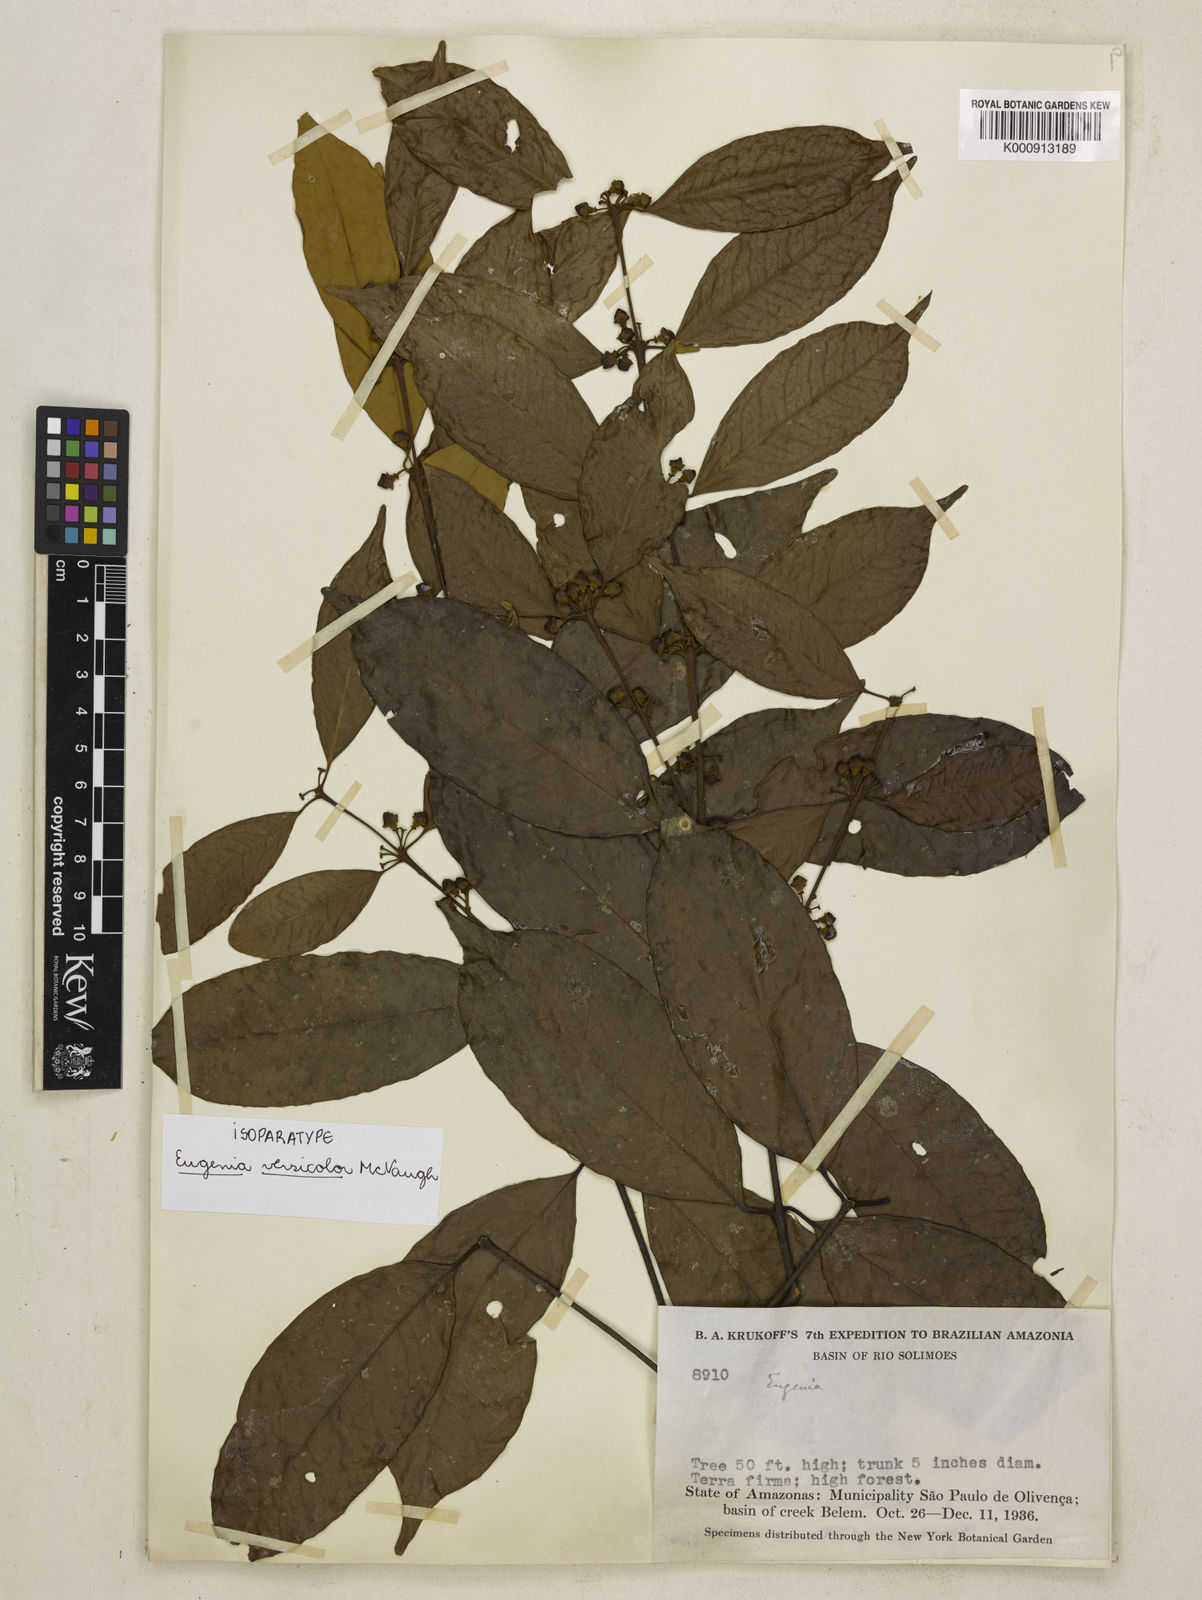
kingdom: Plantae
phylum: Tracheophyta
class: Magnoliopsida
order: Myrtales
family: Myrtaceae
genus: Eugenia
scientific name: Eugenia versicolor
